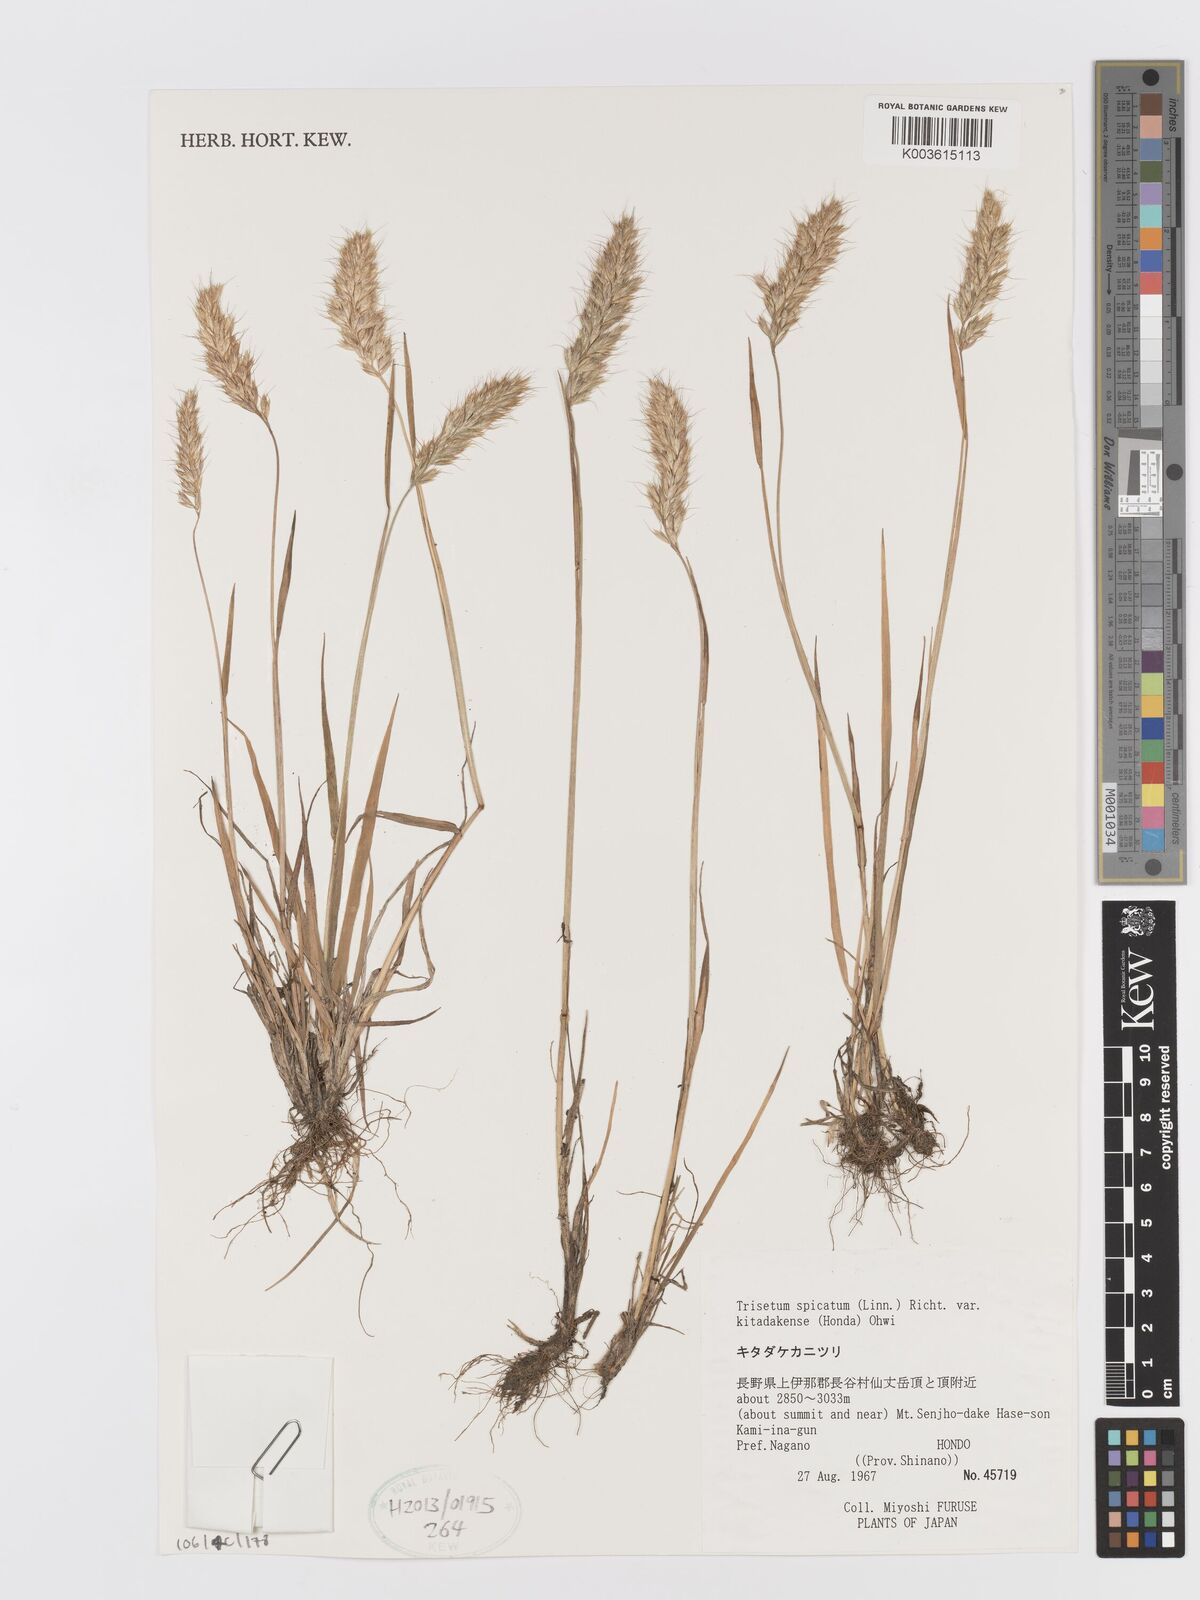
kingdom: Plantae
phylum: Tracheophyta
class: Liliopsida
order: Poales
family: Poaceae
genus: Koeleria
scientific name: Koeleria spicata
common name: Mountain trisetum
